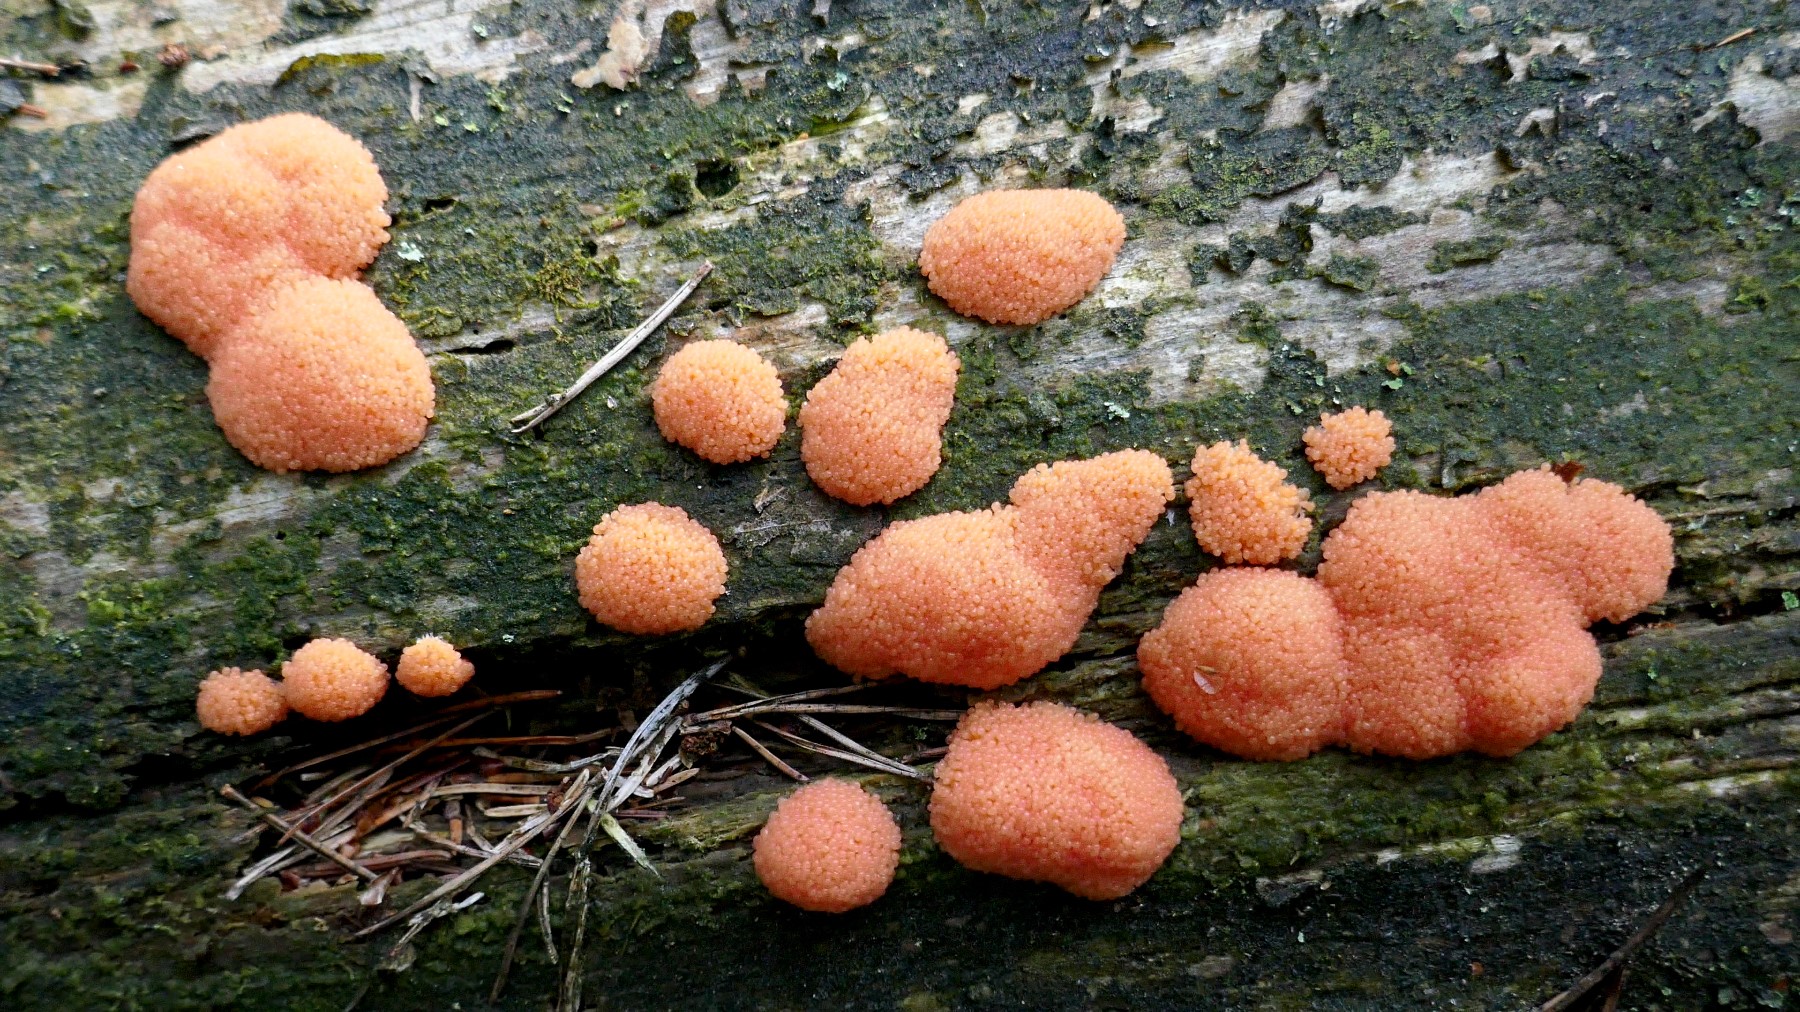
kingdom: Protozoa
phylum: Mycetozoa
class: Myxomycetes
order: Cribrariales
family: Tubiferaceae
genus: Tubifera
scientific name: Tubifera ferruginosa
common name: kanel-støvrør
